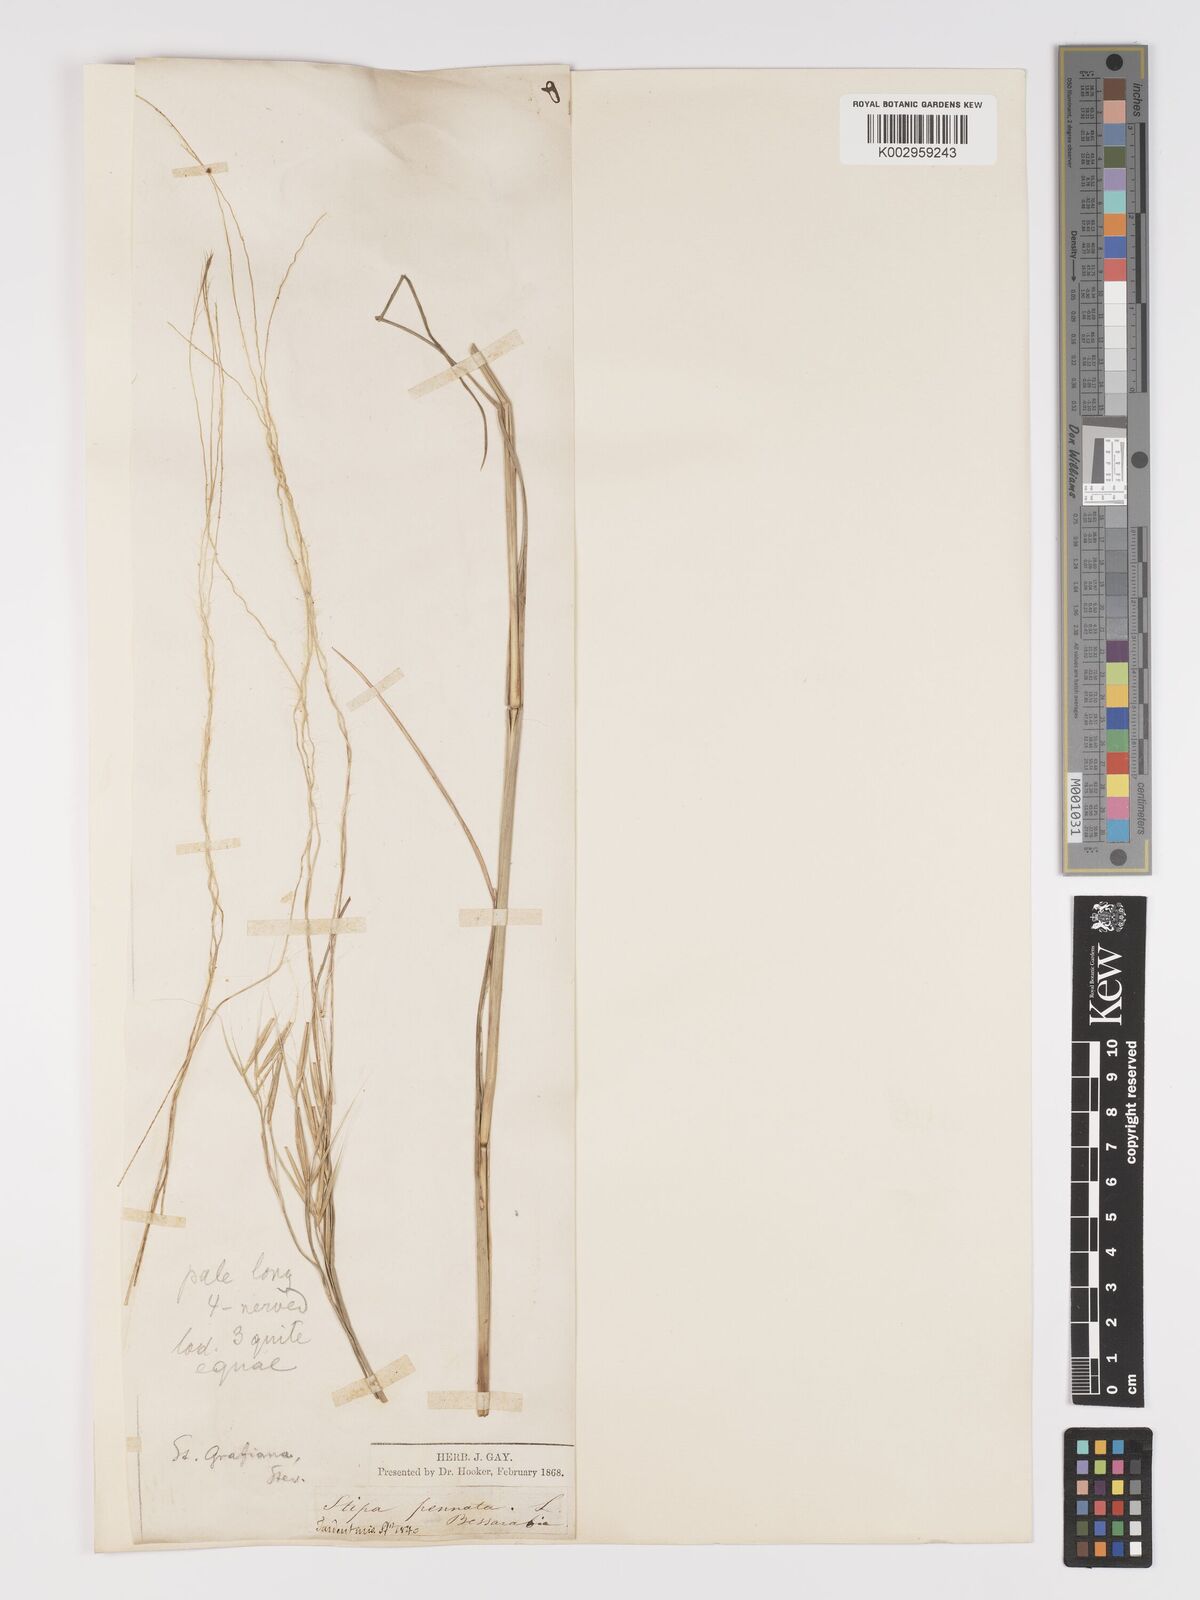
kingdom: Plantae
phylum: Tracheophyta
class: Liliopsida
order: Poales
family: Poaceae
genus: Stipa
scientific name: Stipa pulcherrima
